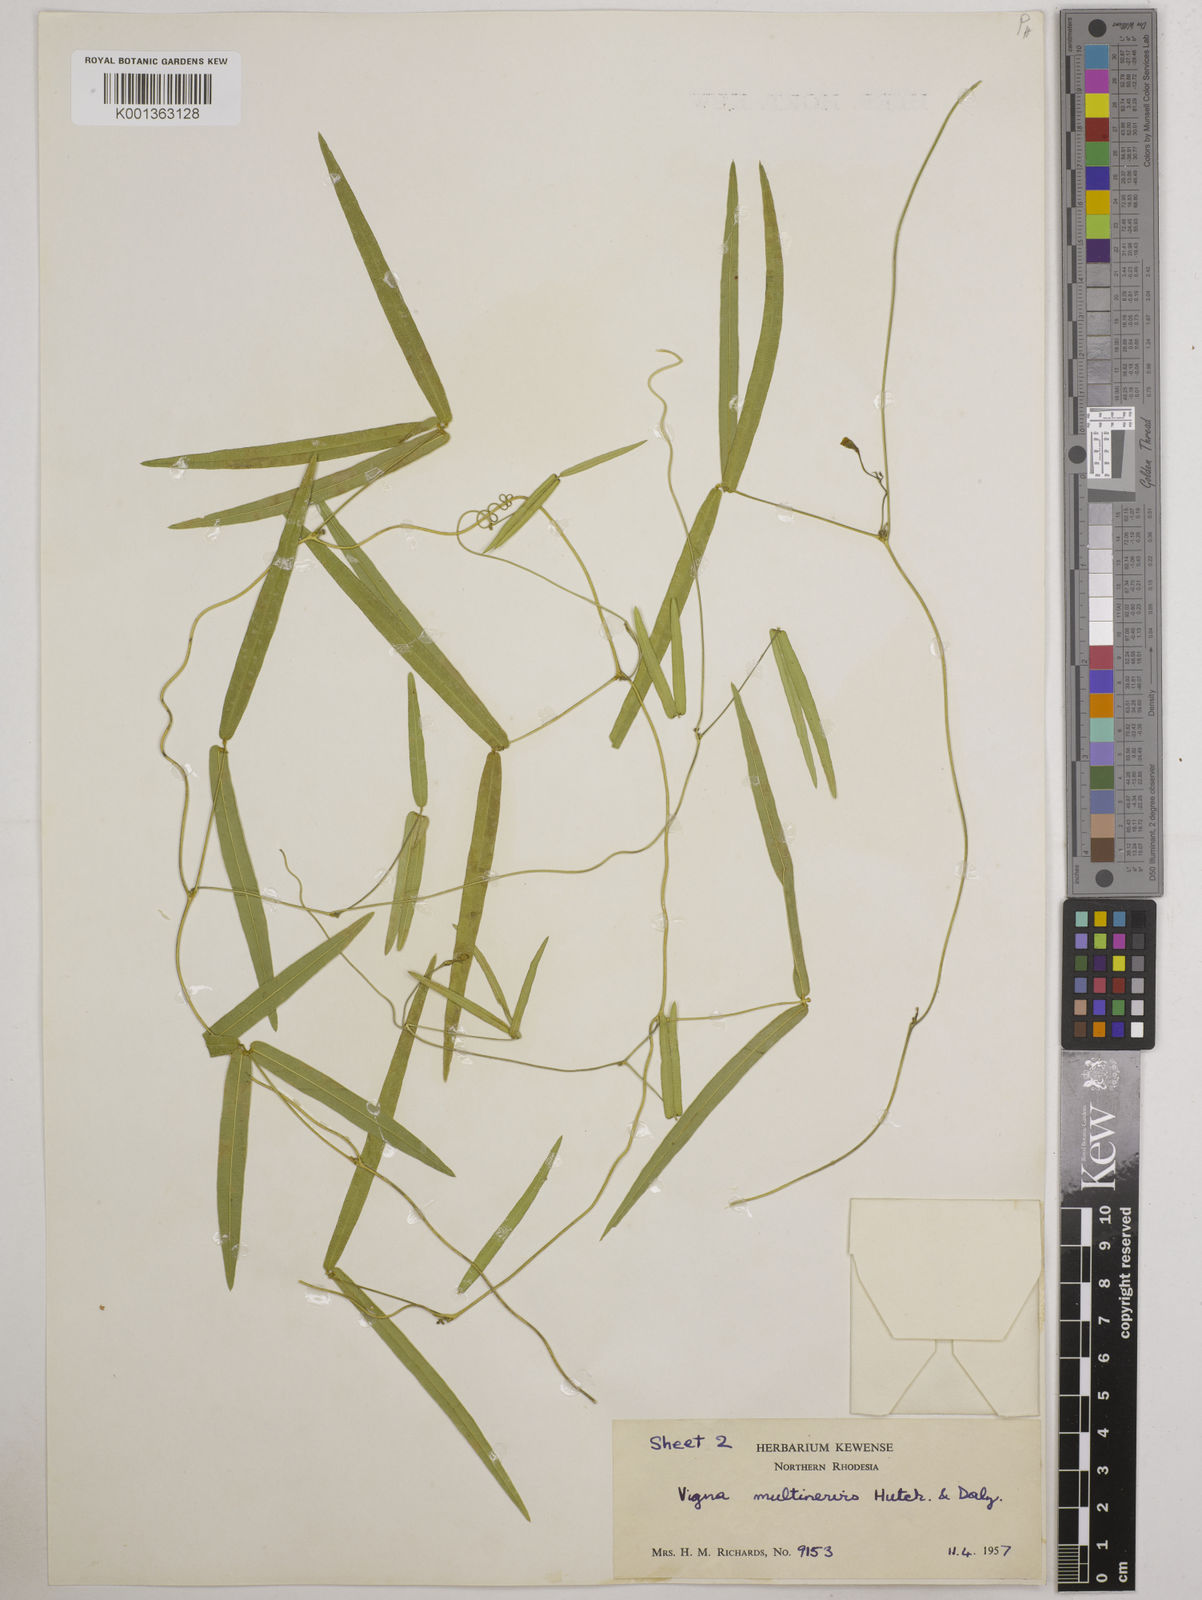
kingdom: Plantae
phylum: Tracheophyta
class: Magnoliopsida
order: Fabales
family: Fabaceae
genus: Vigna
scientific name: Vigna multinervis
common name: Fula-pulaar
